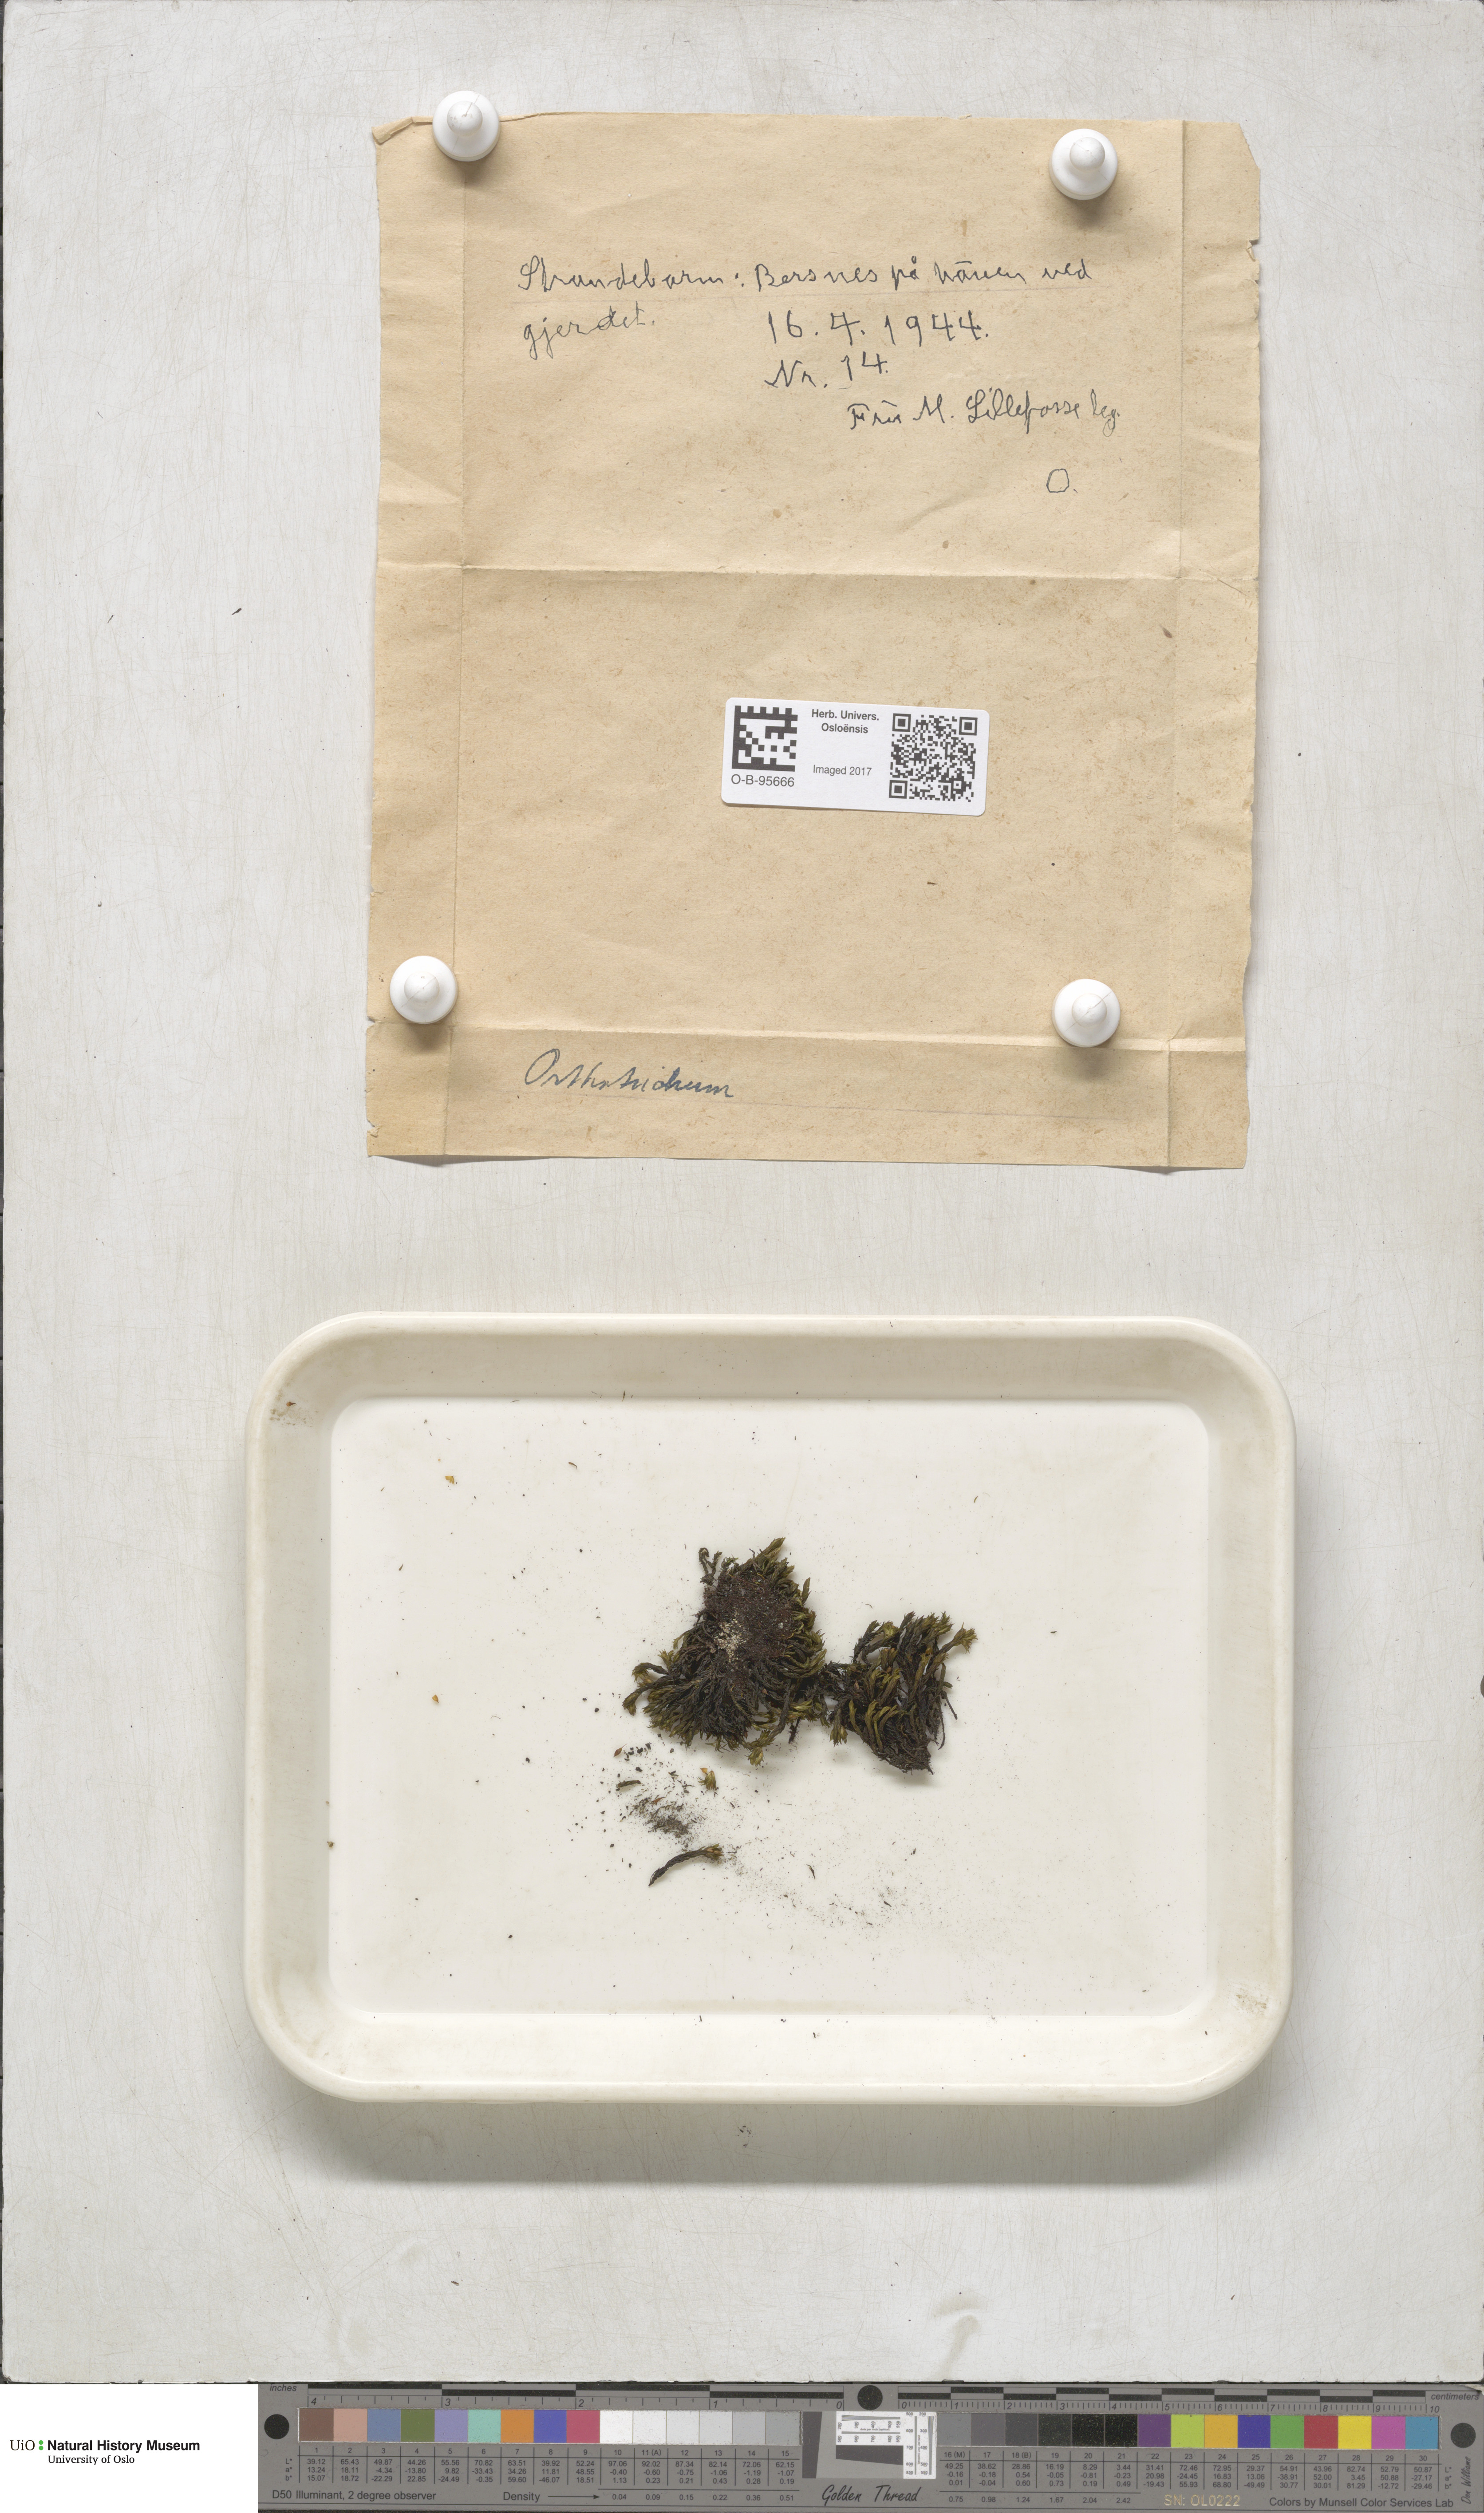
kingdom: Plantae
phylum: Bryophyta
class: Bryopsida
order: Orthotrichales
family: Orthotrichaceae
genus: Orthotrichum
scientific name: Orthotrichum
